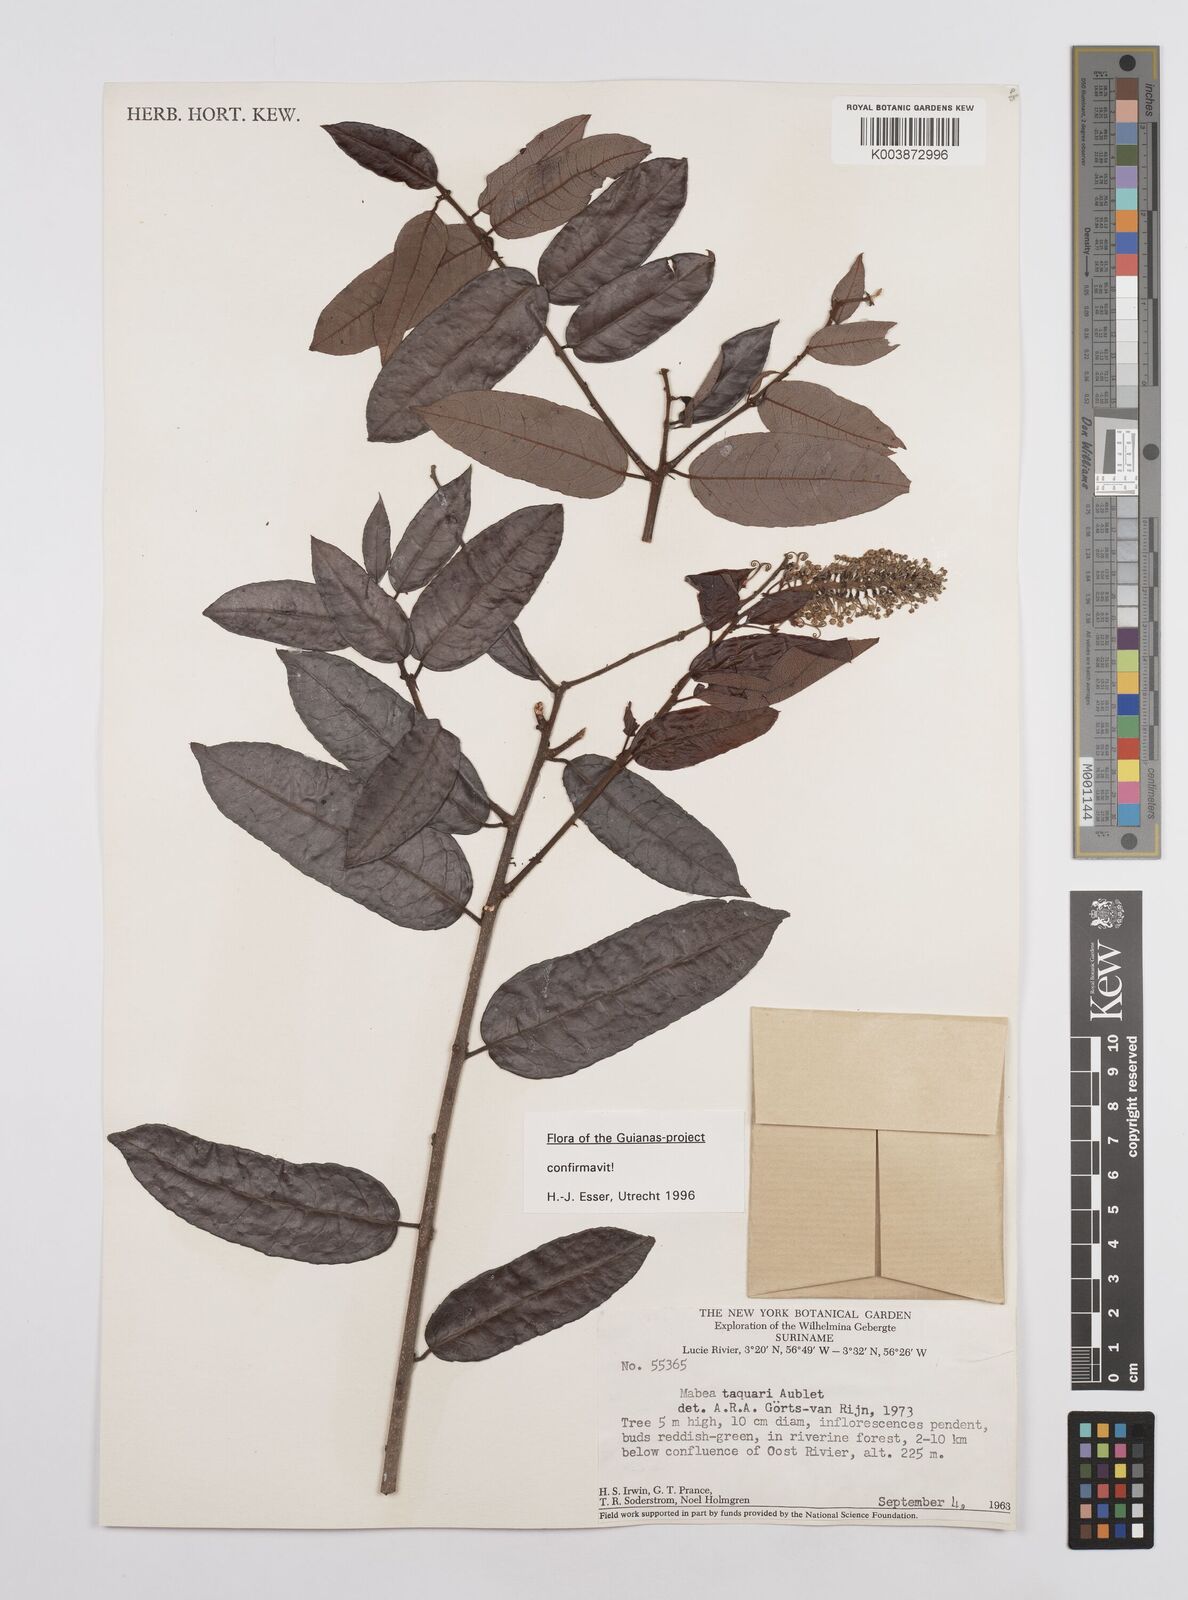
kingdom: Plantae
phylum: Tracheophyta
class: Magnoliopsida
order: Malpighiales
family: Euphorbiaceae
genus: Mabea
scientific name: Mabea taquari
